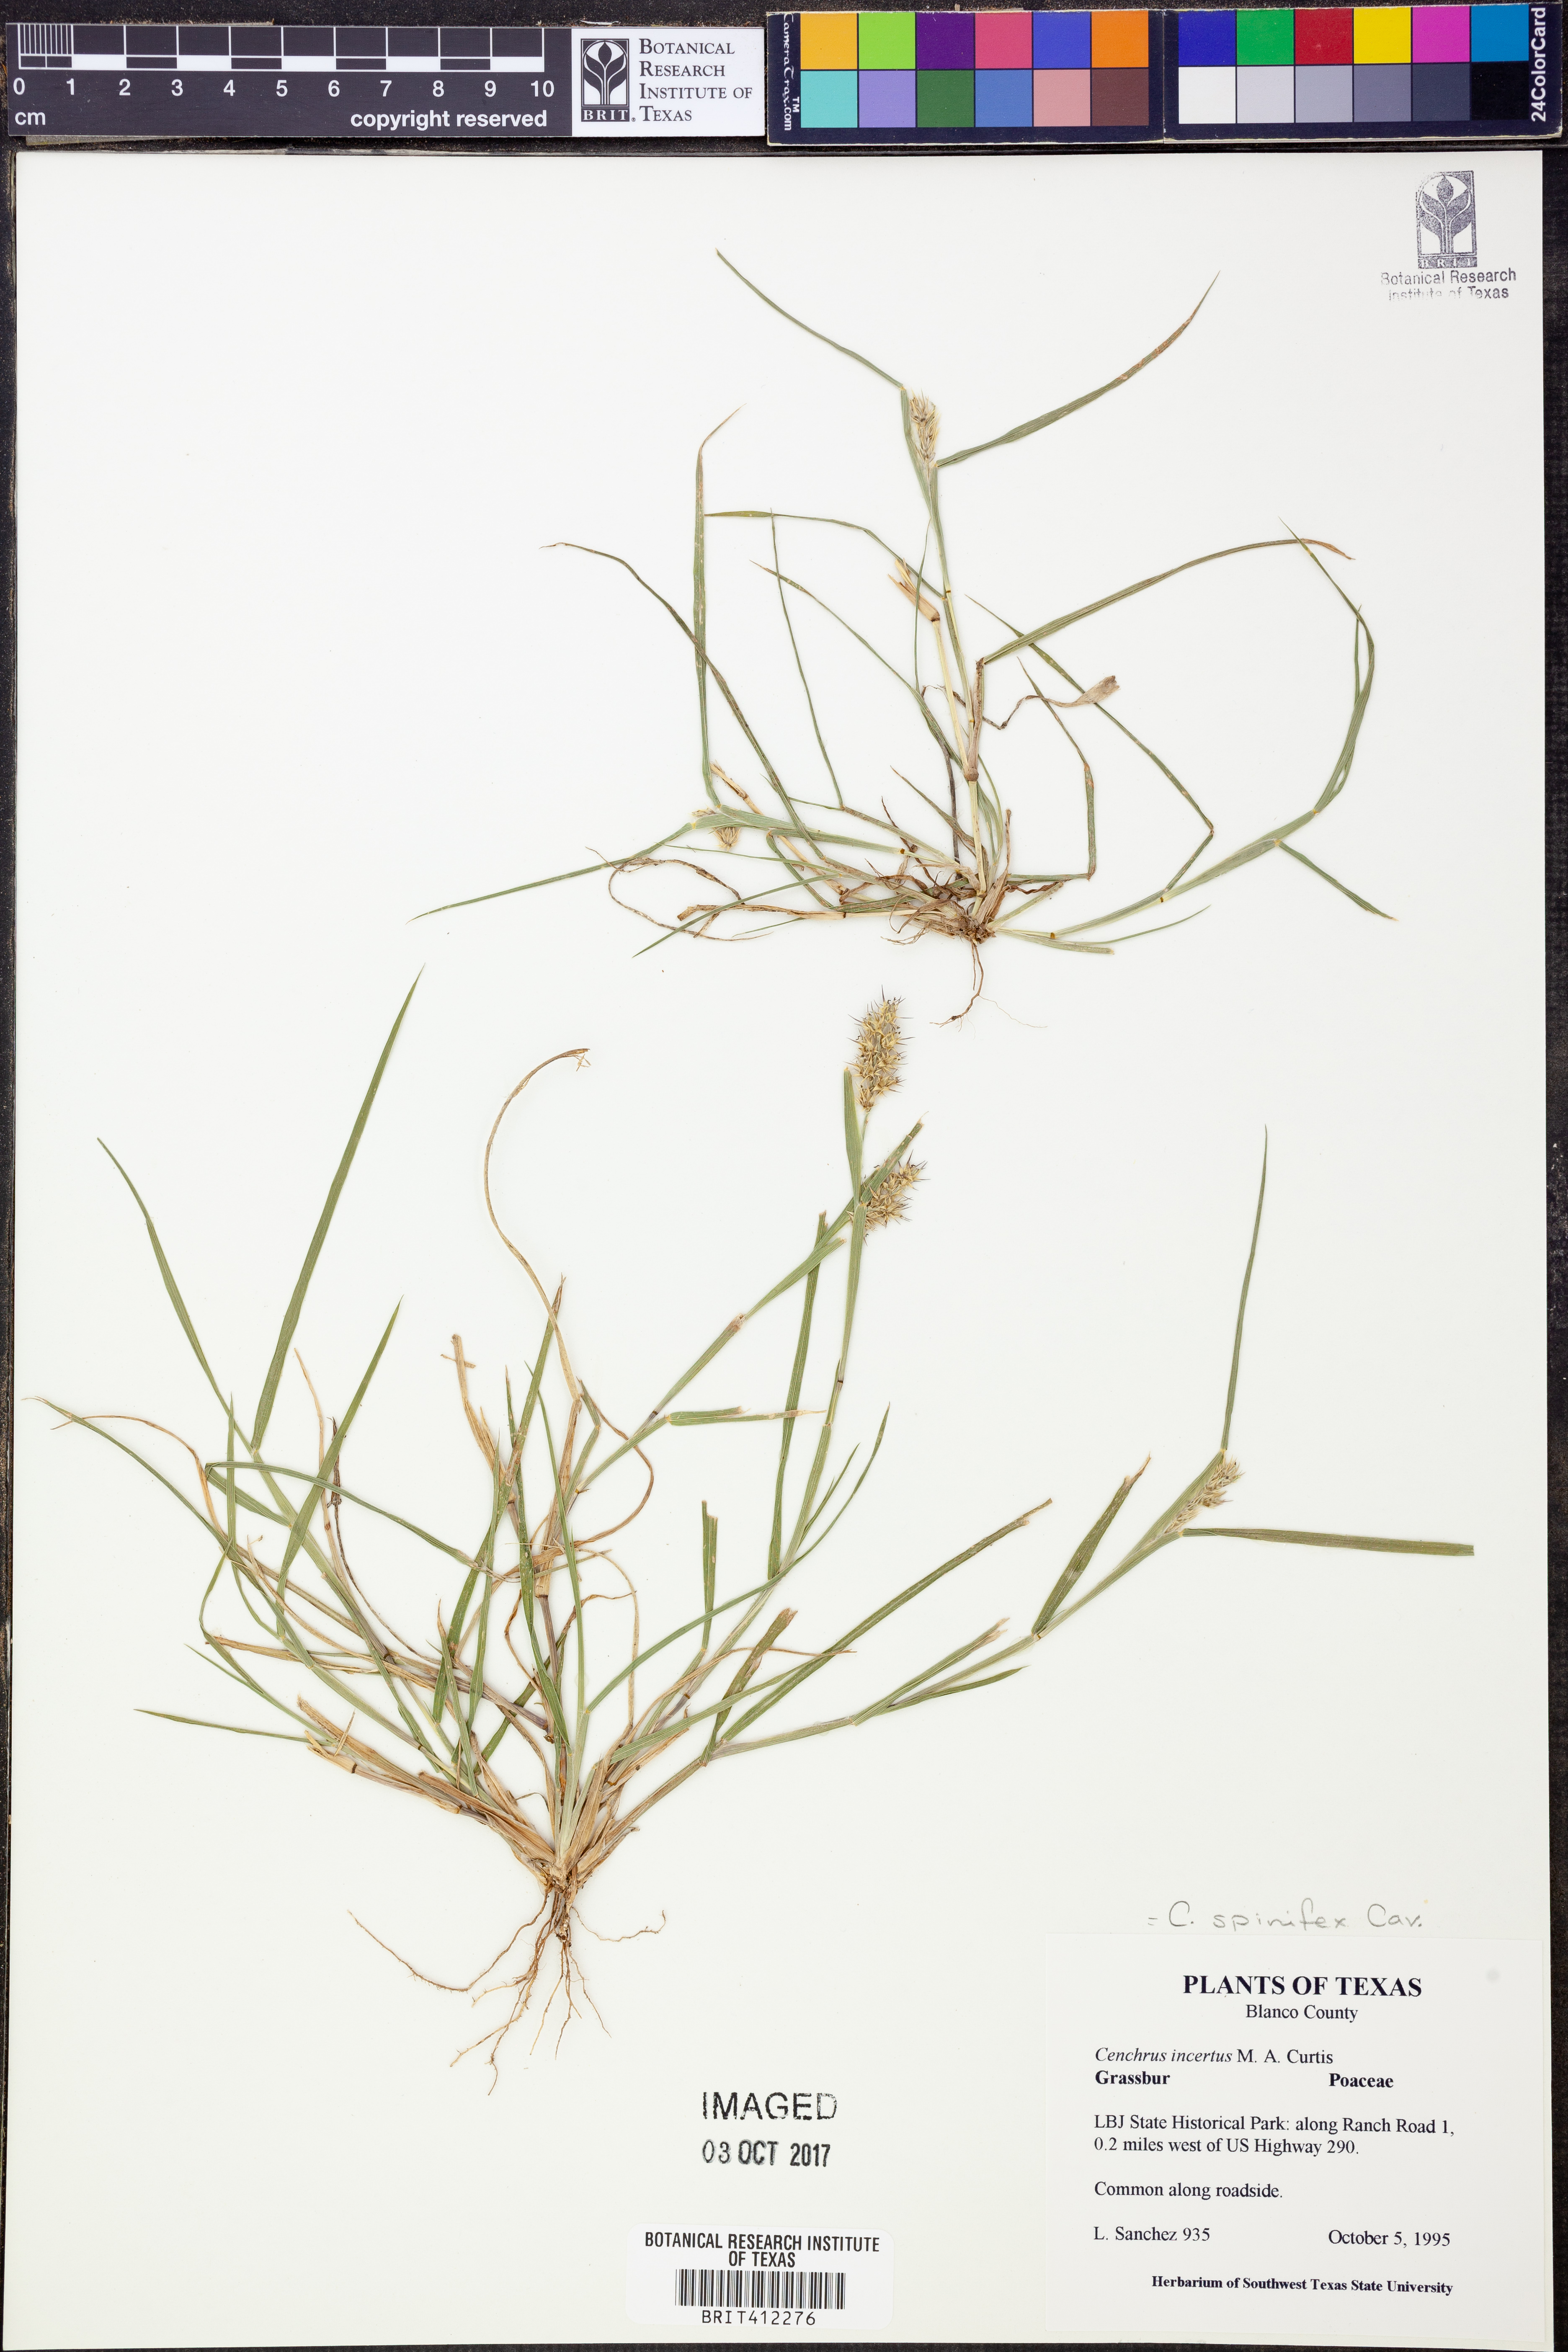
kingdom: Plantae
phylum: Tracheophyta
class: Liliopsida
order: Poales
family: Poaceae
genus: Cenchrus
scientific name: Cenchrus spinifex
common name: Coast sandbur
